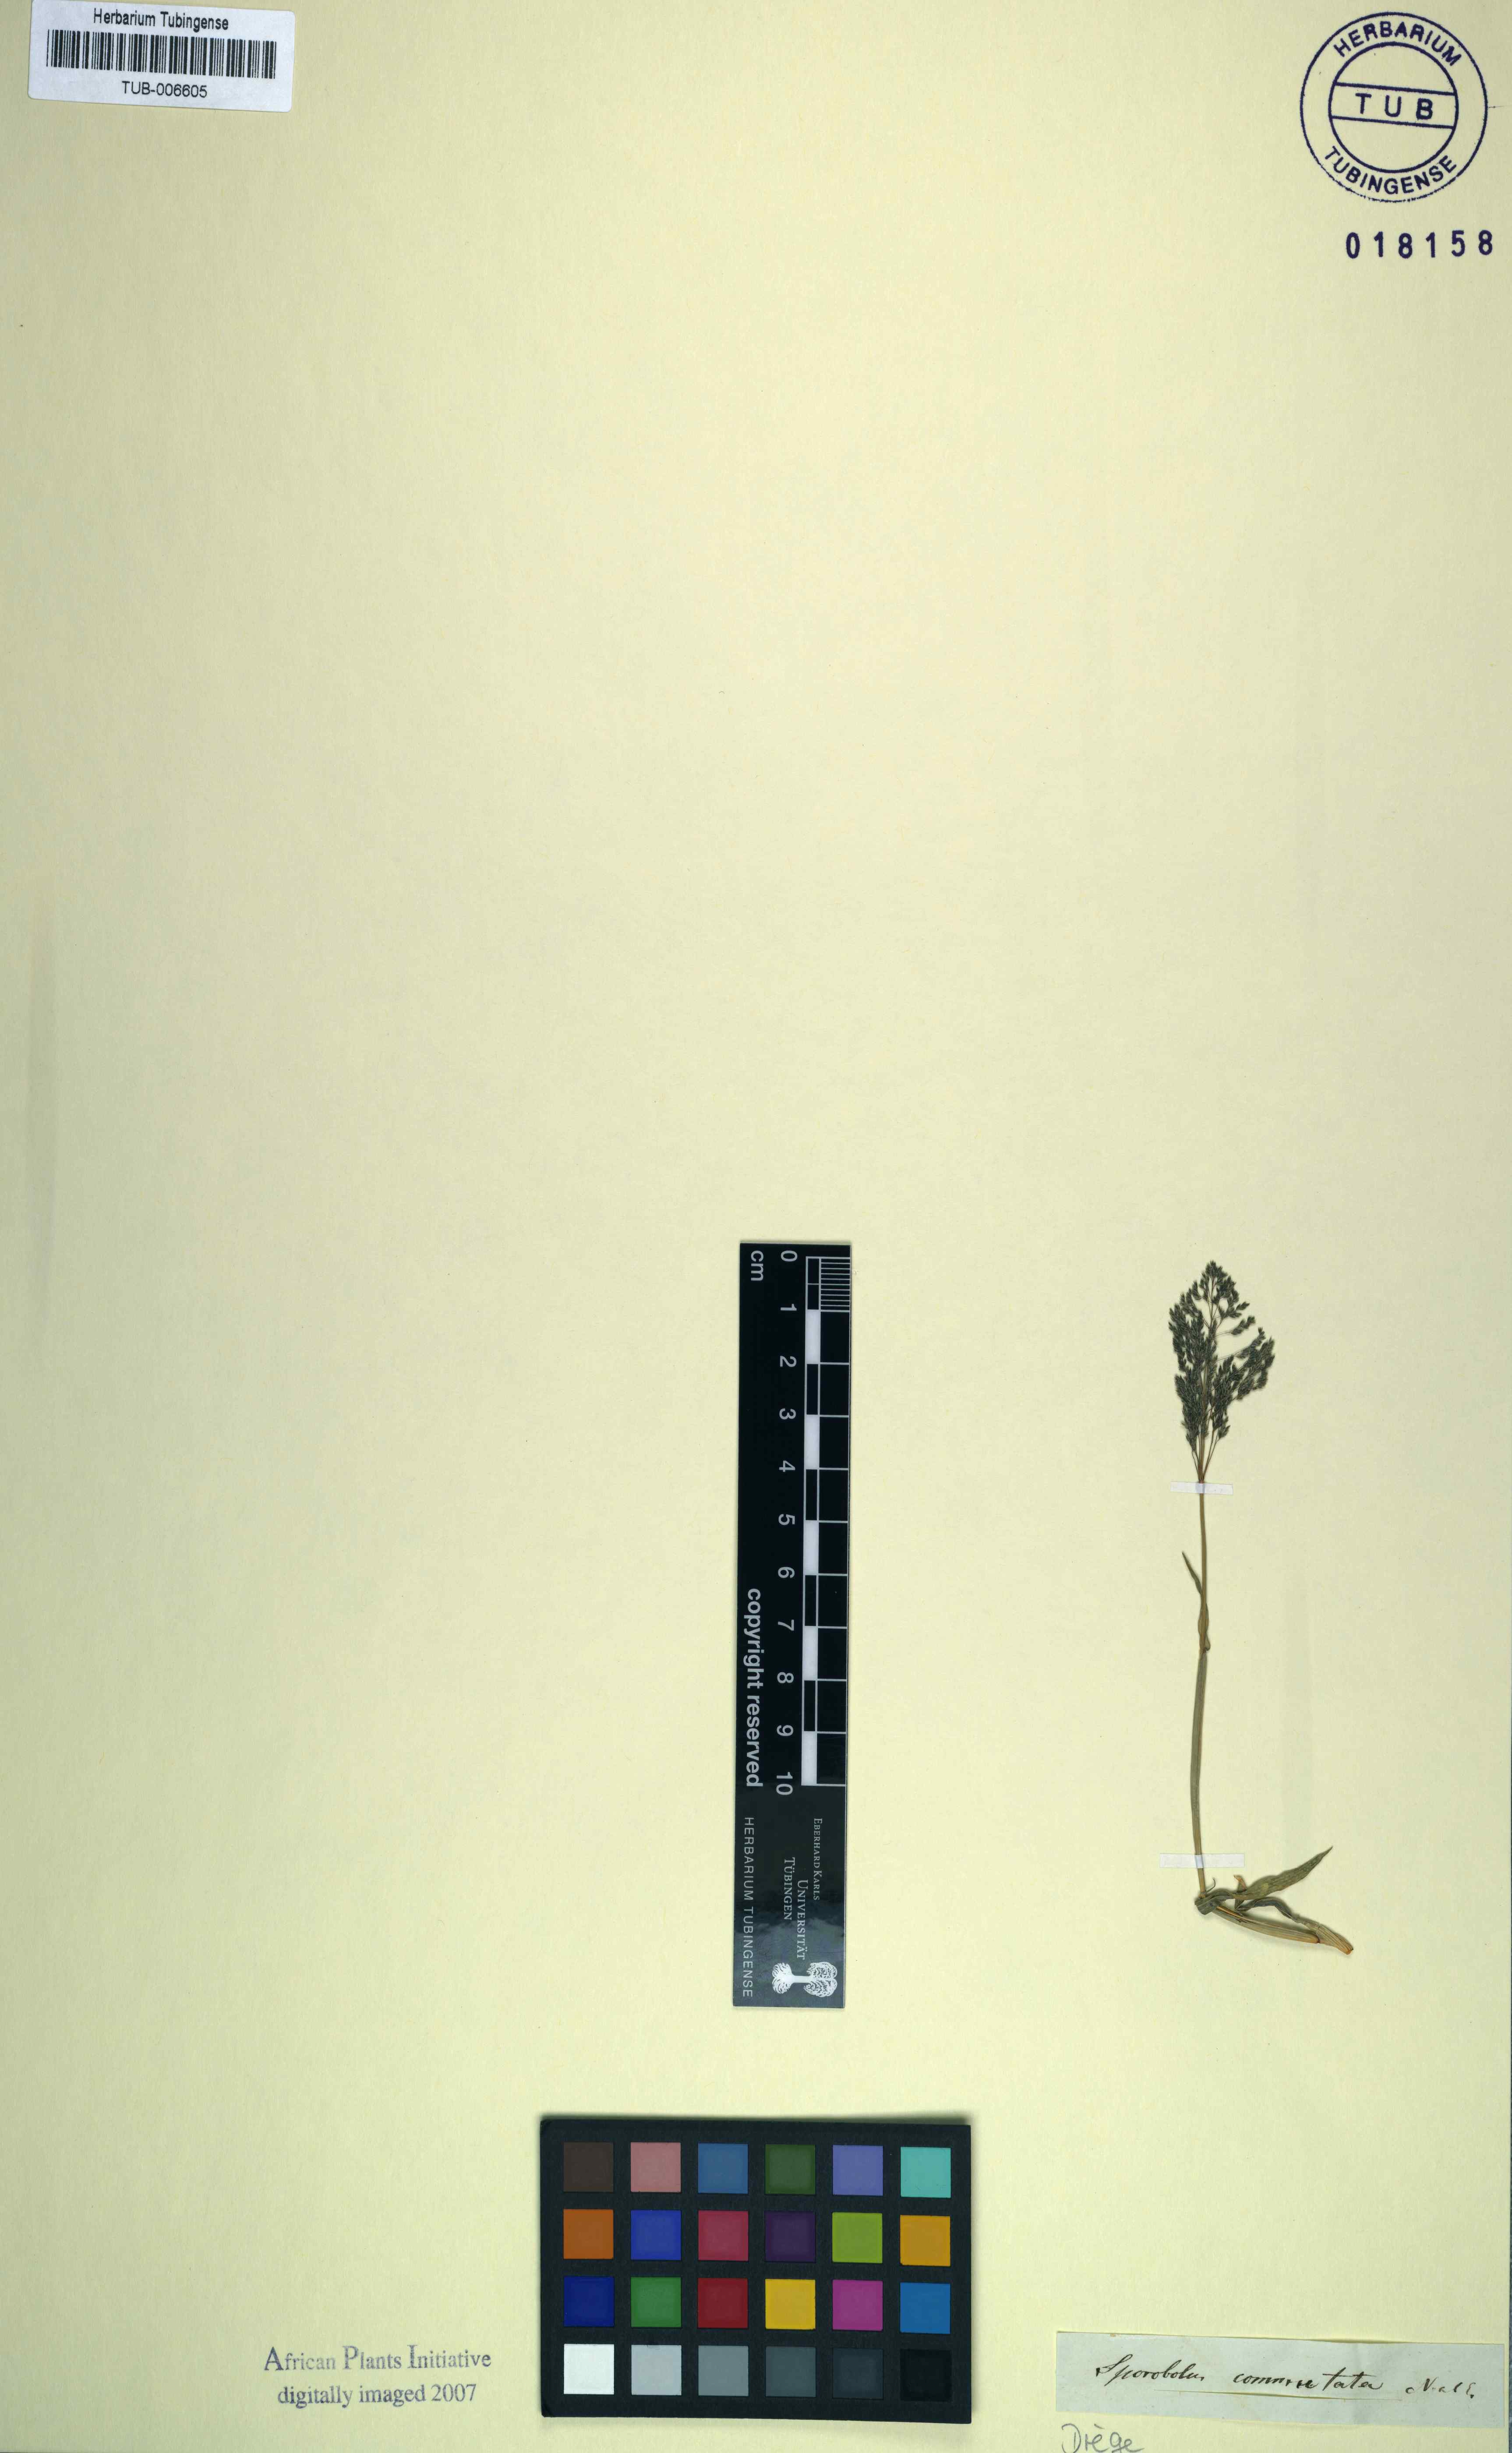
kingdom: Plantae
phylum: Tracheophyta
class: Liliopsida
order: Poales
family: Poaceae
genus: Sporobolus
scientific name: Sporobolus coromandelianus
